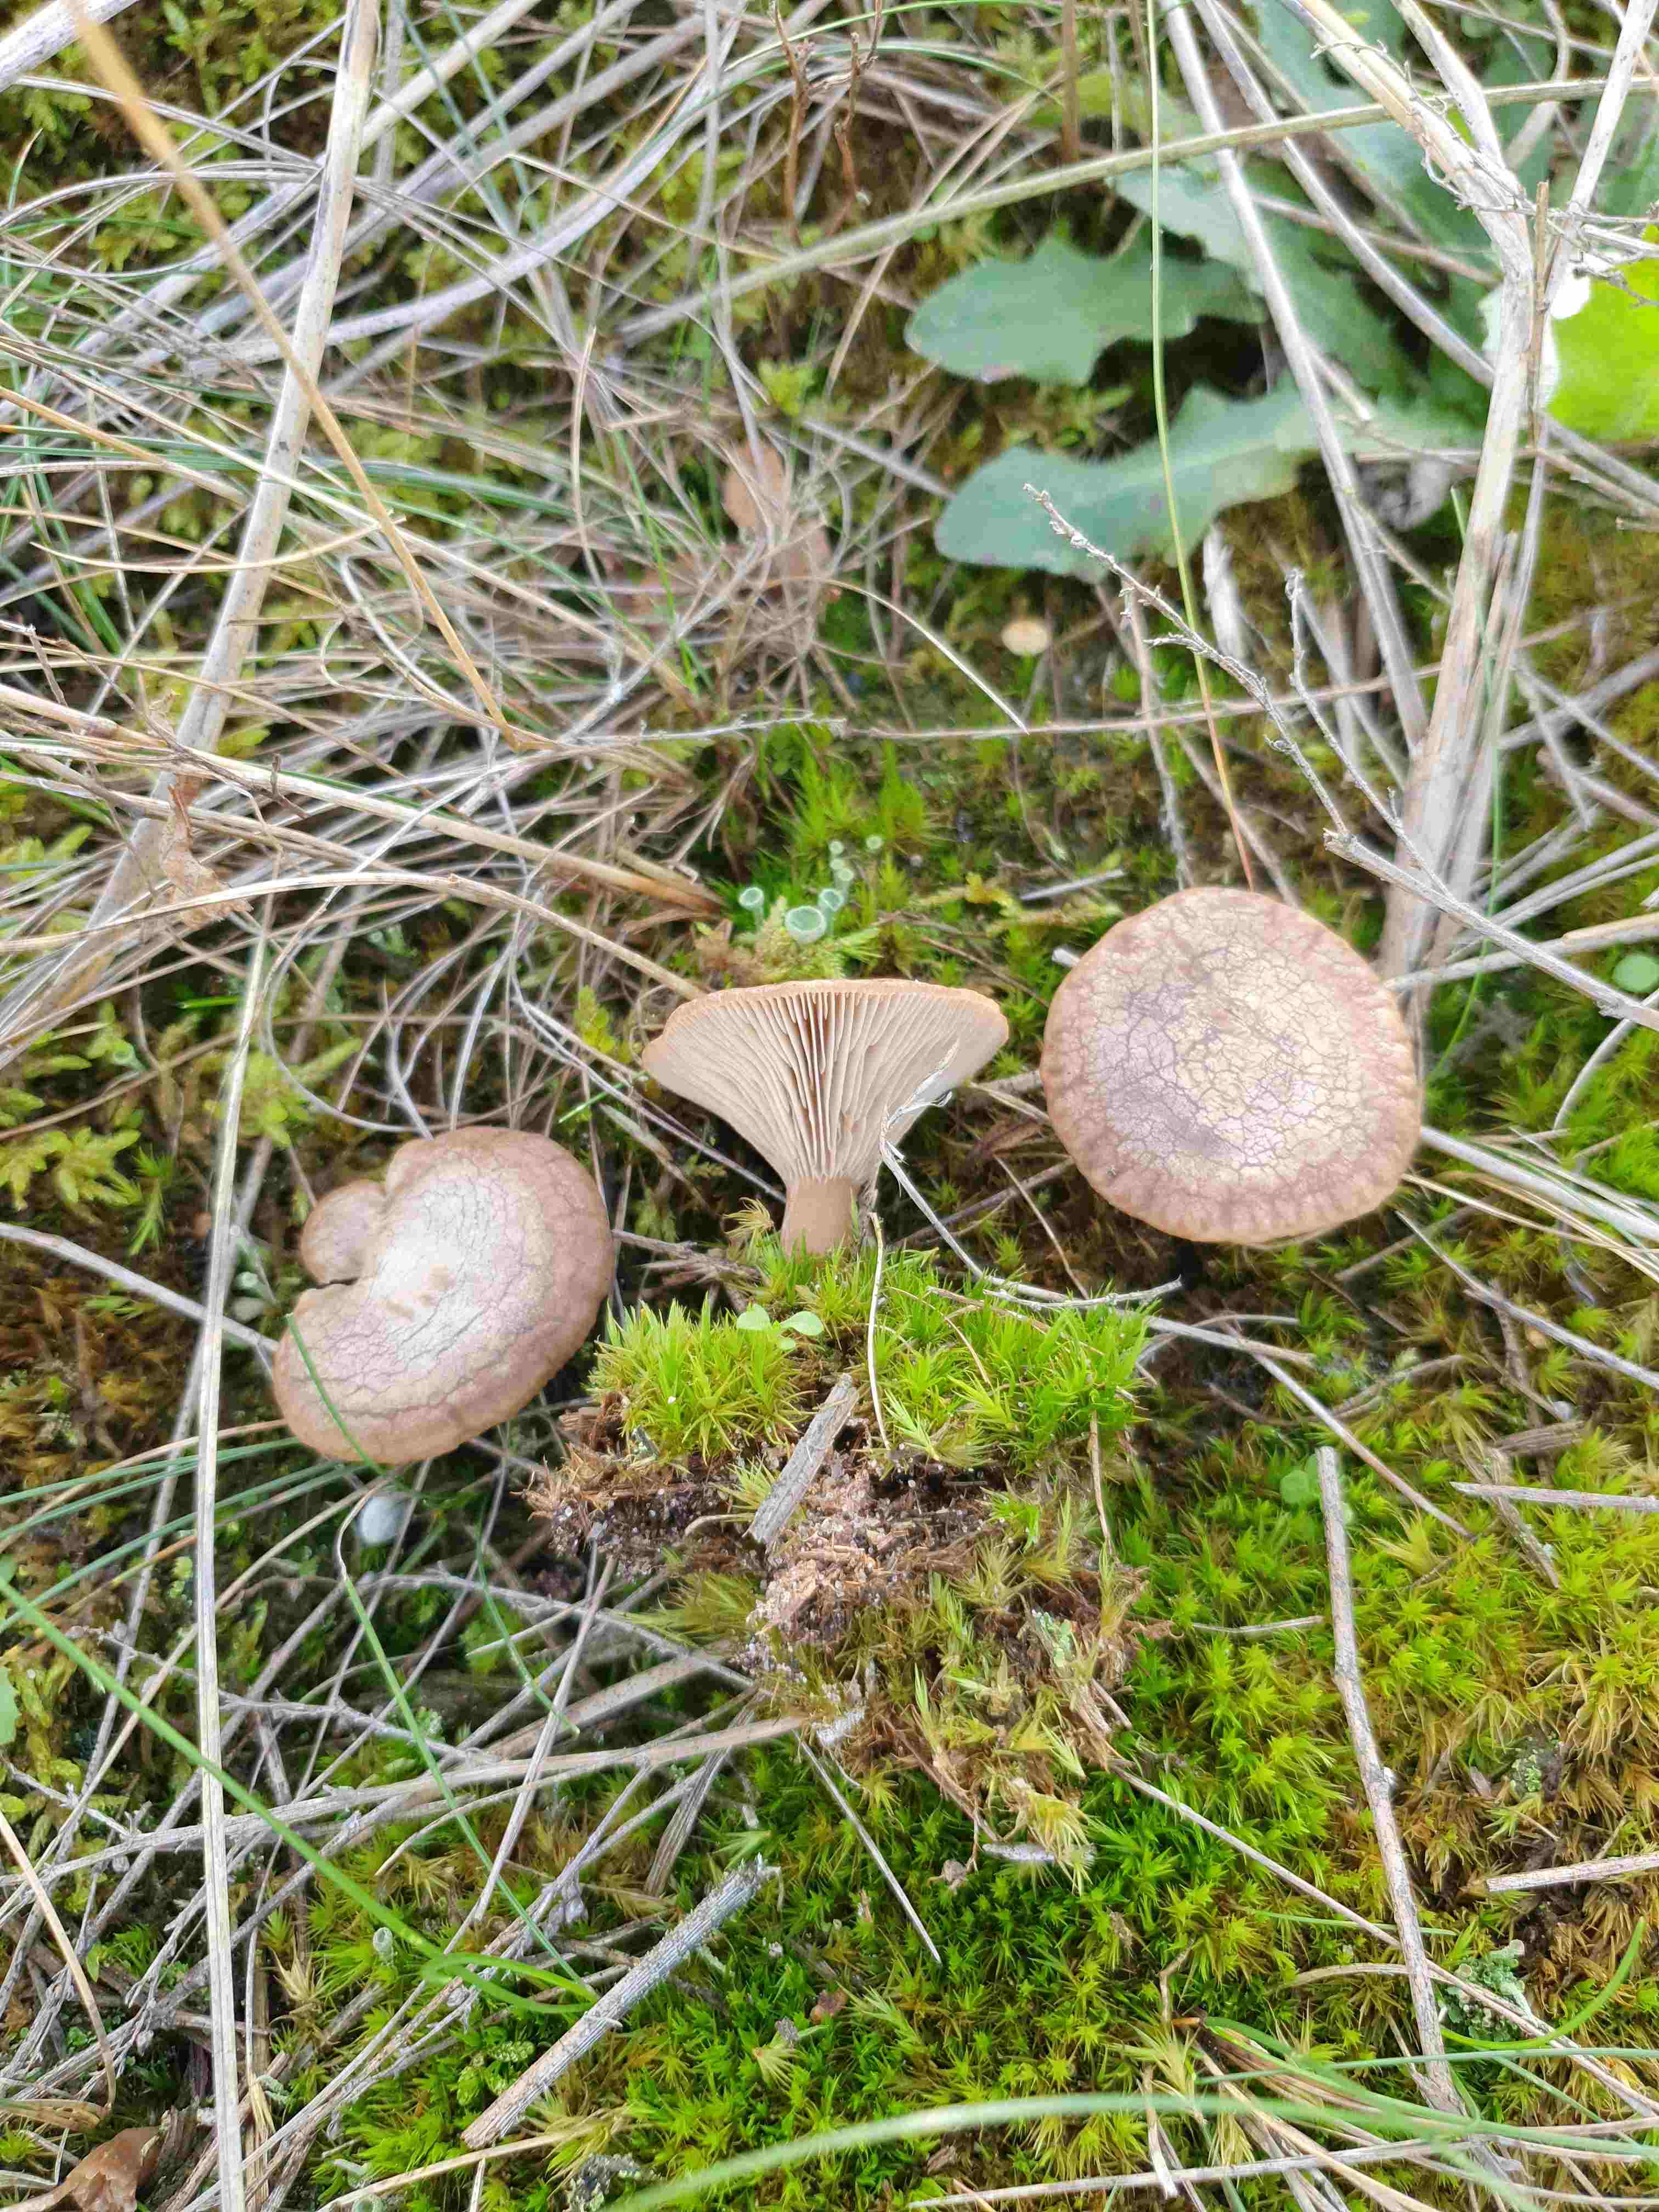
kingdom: Fungi
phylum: Basidiomycota
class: Agaricomycetes
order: Agaricales
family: Tricholomataceae
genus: Lulesia
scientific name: Lulesia
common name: sortnende troldhat
